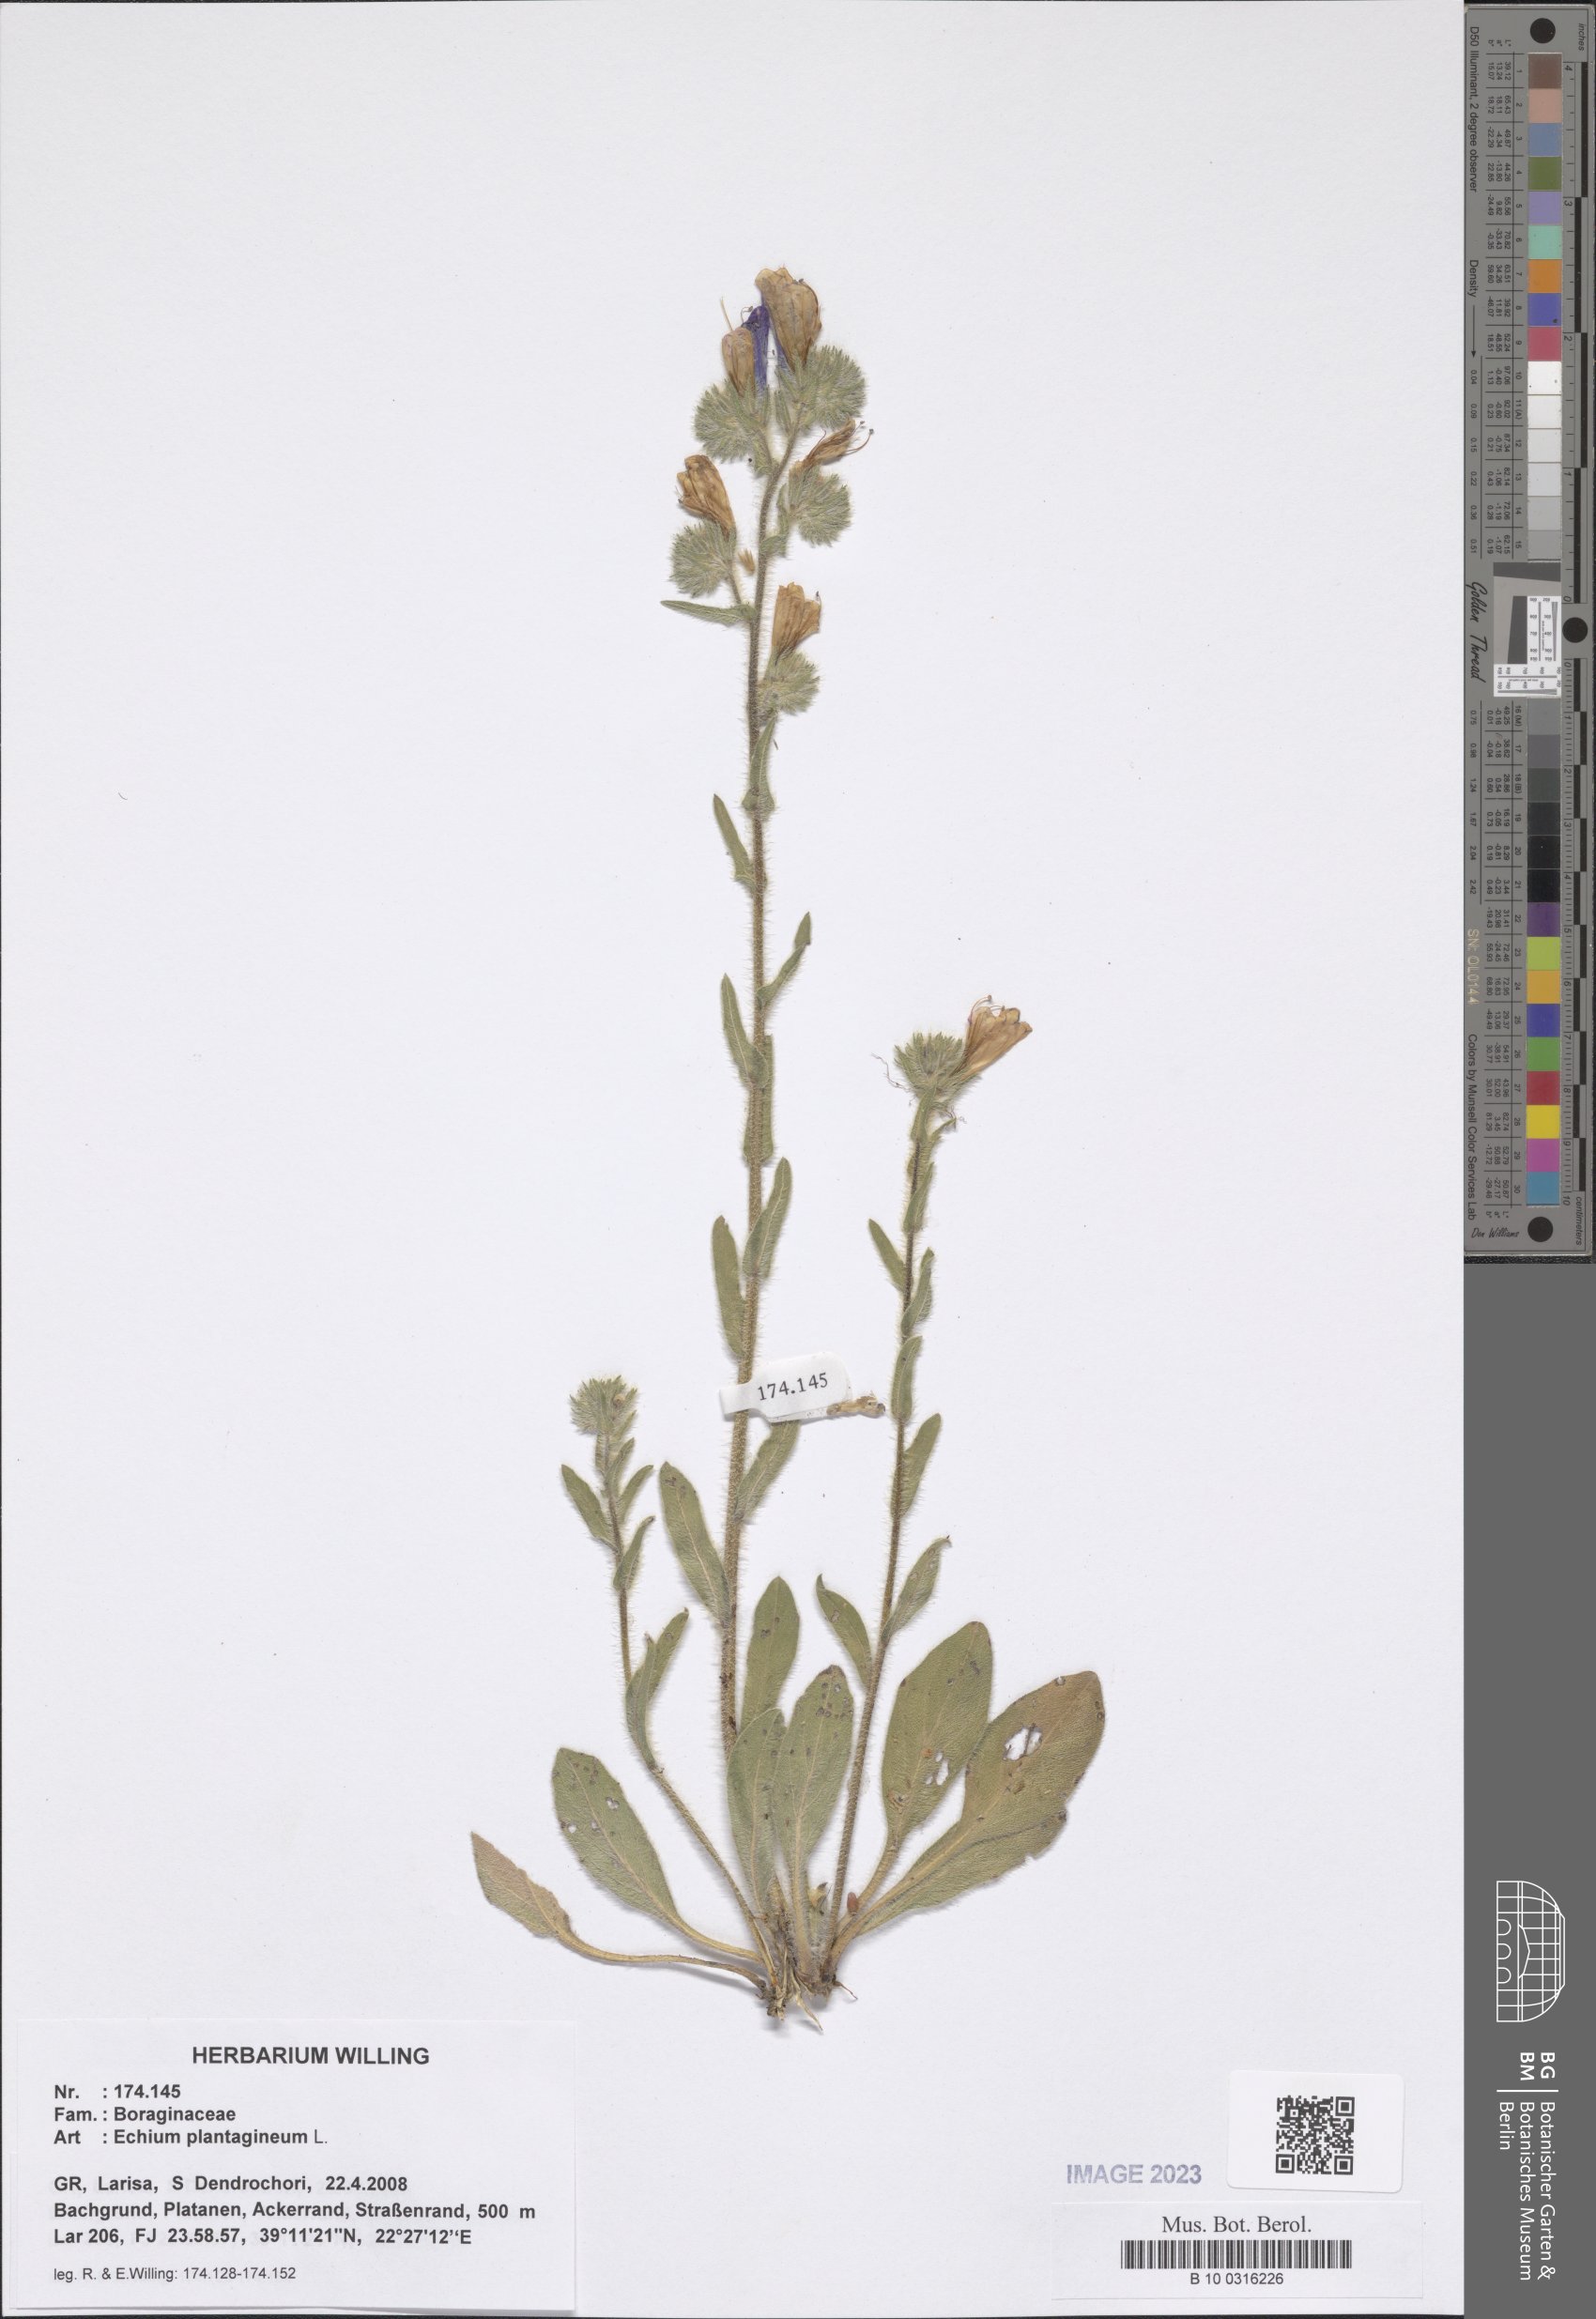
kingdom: Plantae
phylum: Tracheophyta
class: Magnoliopsida
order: Boraginales
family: Boraginaceae
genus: Echium
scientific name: Echium plantagineum
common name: Purple viper's-bugloss
